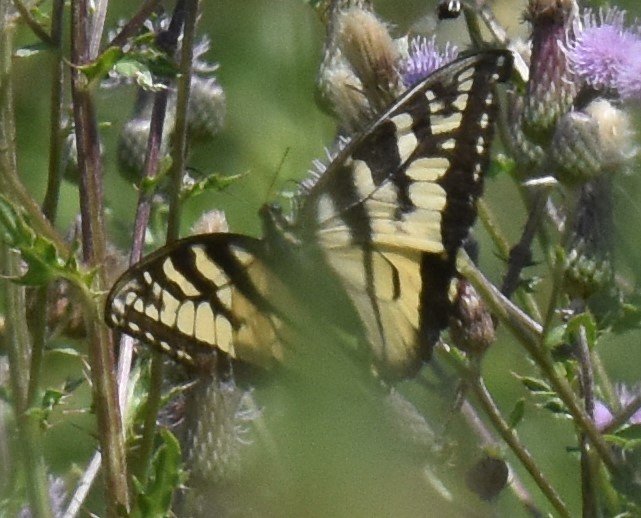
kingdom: Animalia
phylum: Arthropoda
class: Insecta
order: Lepidoptera
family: Papilionidae
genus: Pterourus
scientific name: Pterourus
